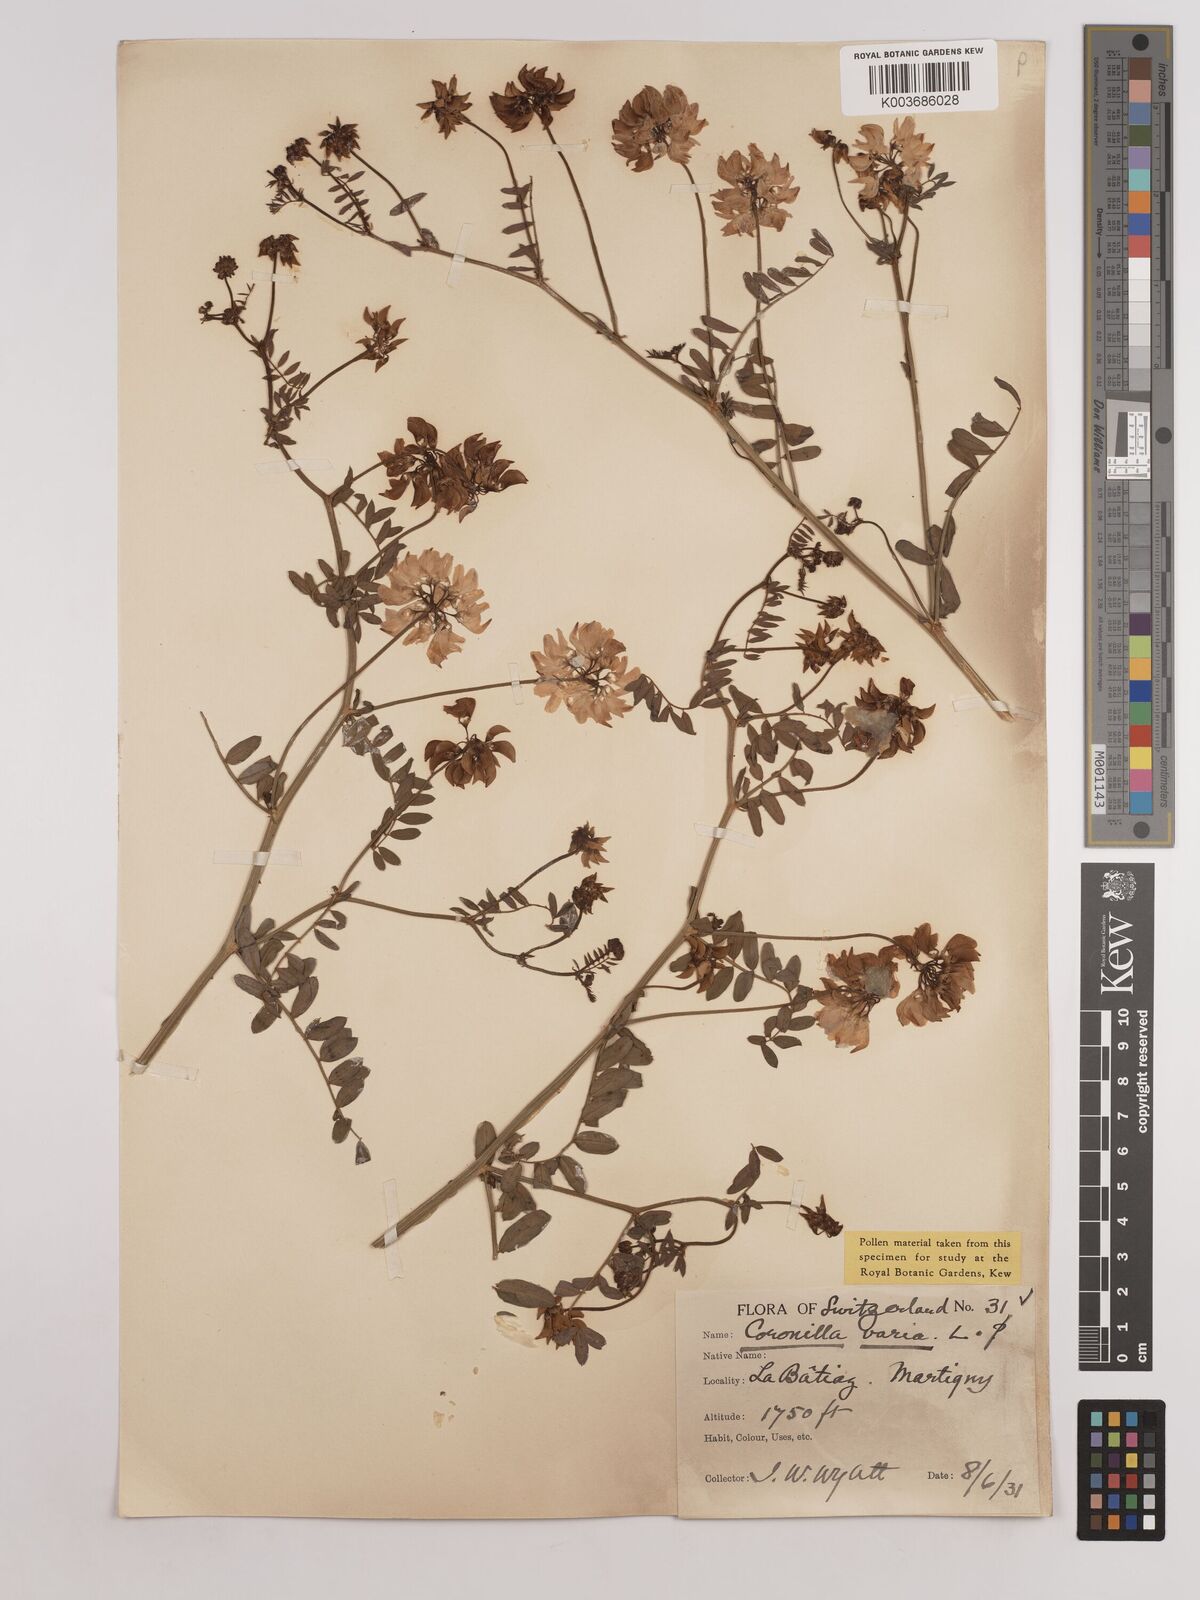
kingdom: Plantae
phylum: Tracheophyta
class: Magnoliopsida
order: Fabales
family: Fabaceae
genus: Coronilla
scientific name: Coronilla varia
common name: Crownvetch
